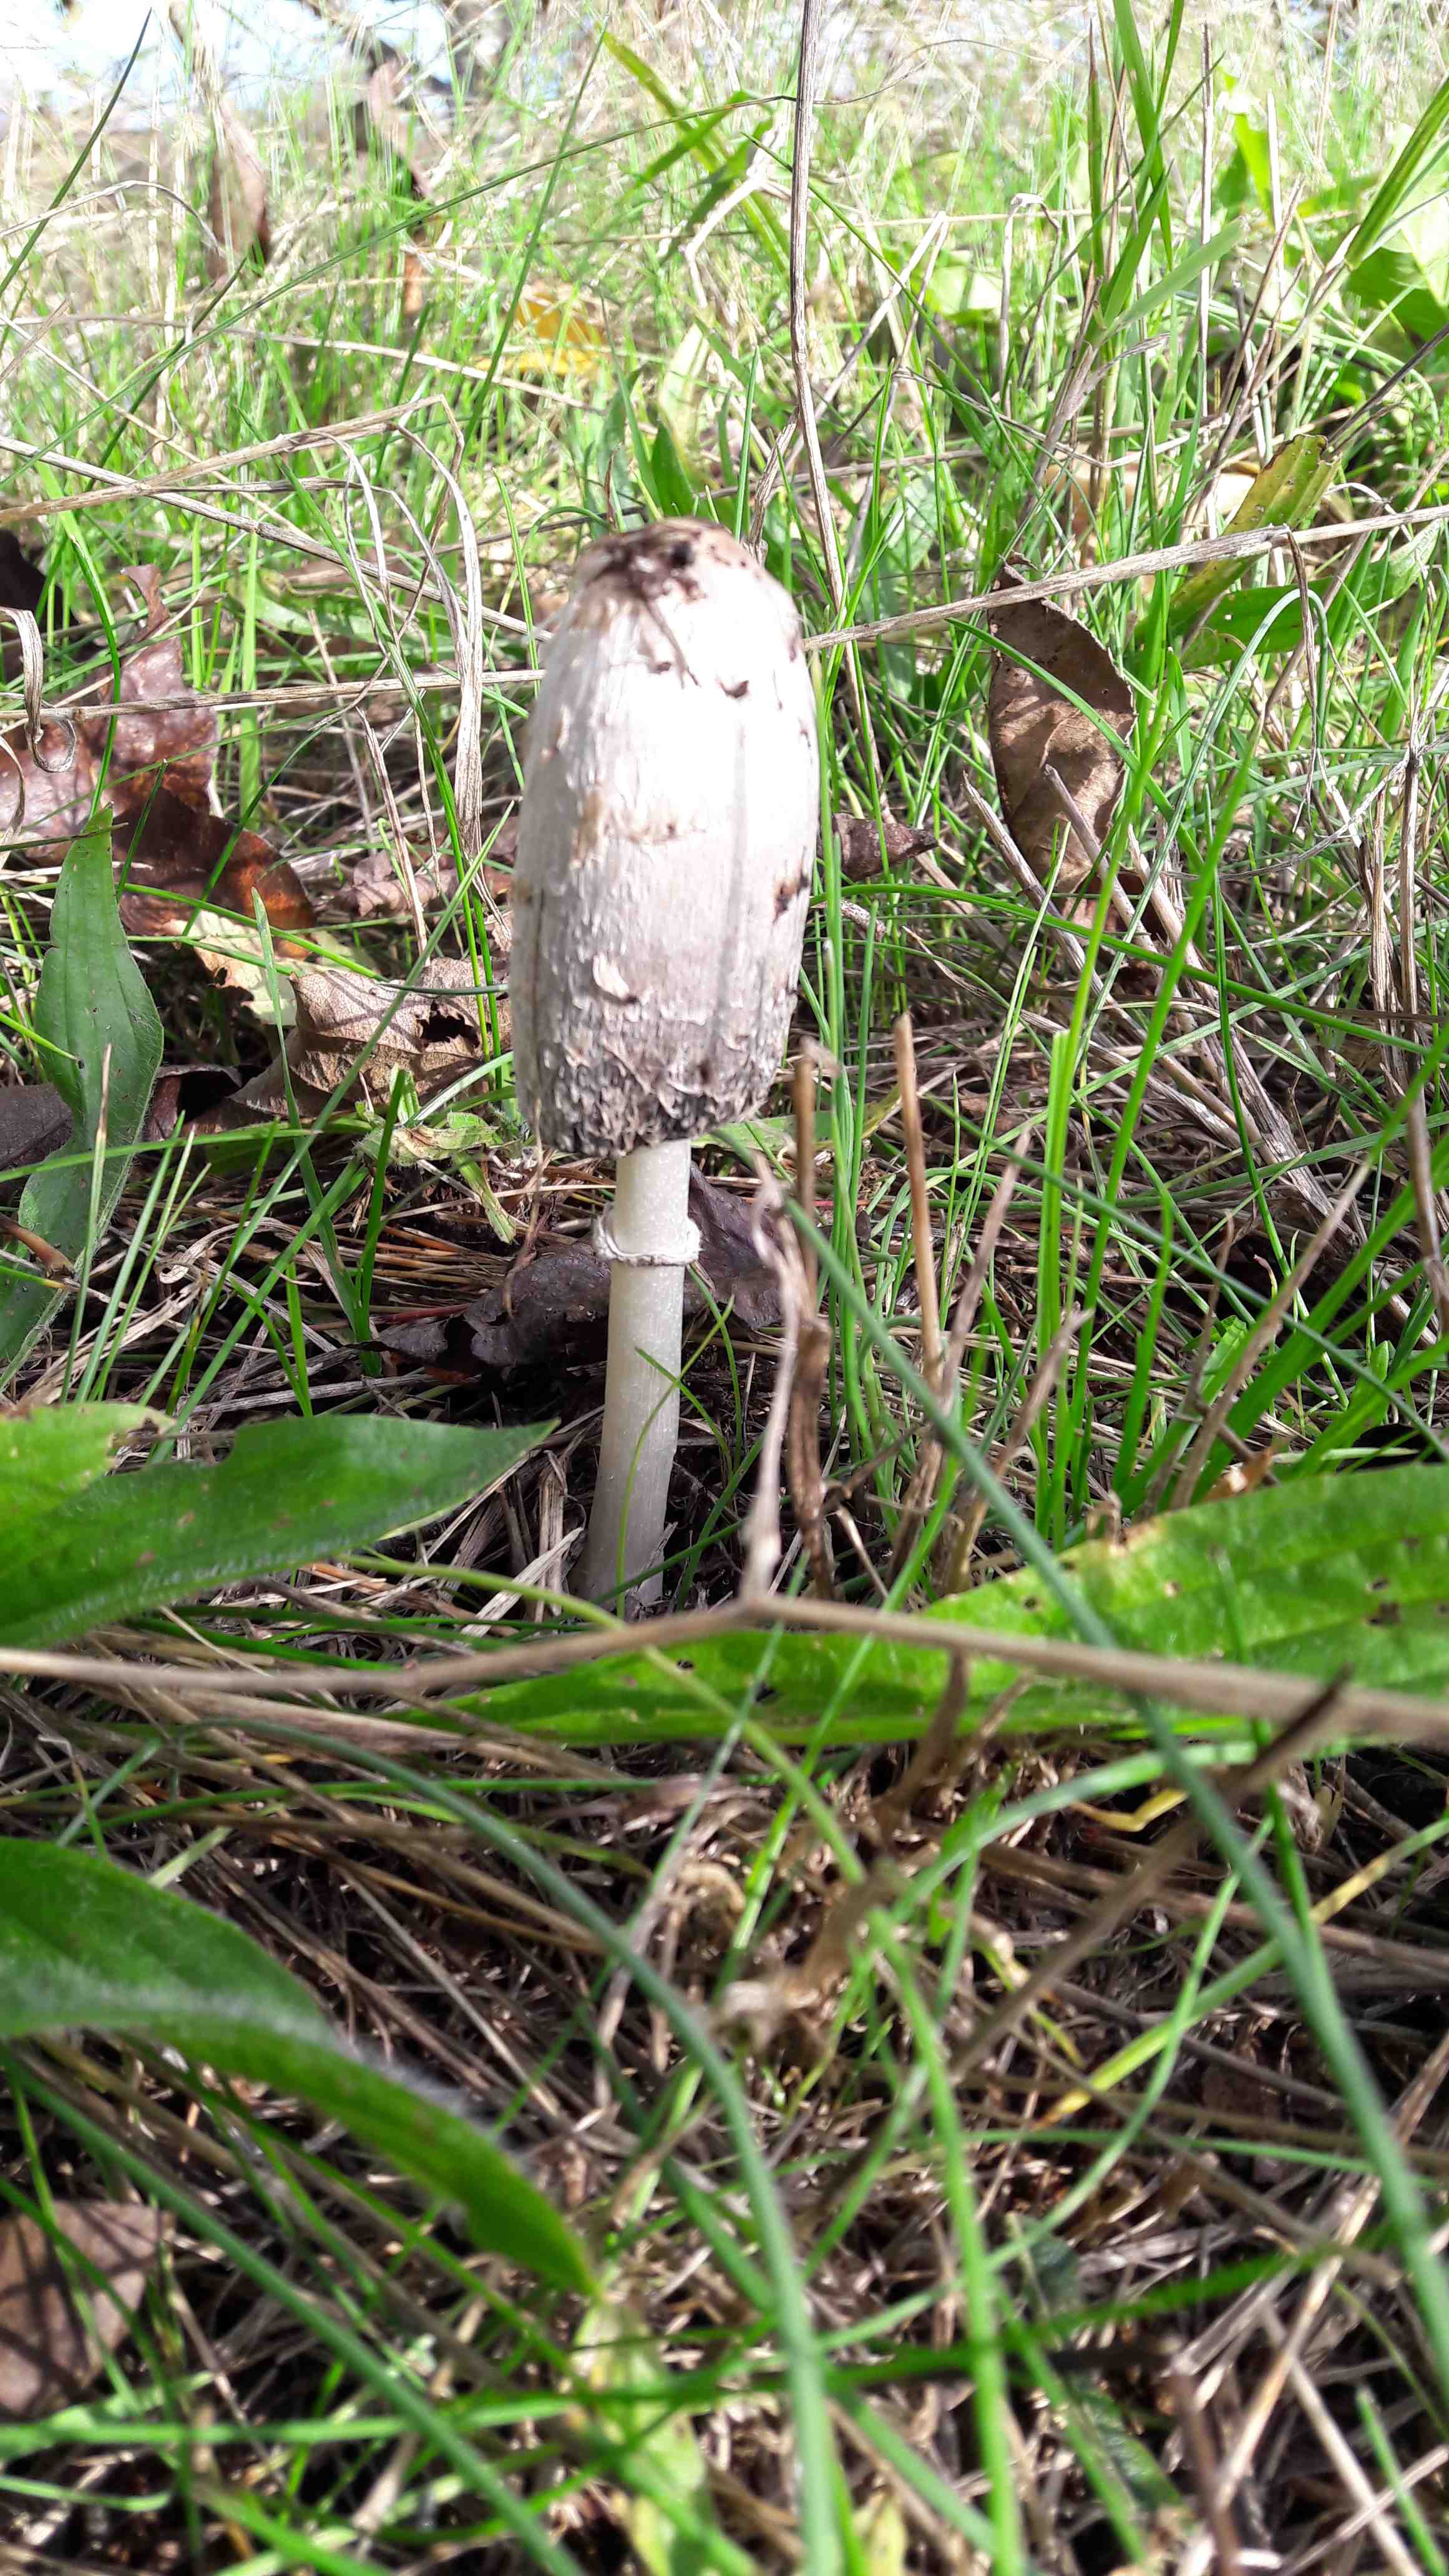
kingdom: Fungi
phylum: Basidiomycota
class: Agaricomycetes
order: Agaricales
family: Agaricaceae
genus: Coprinus
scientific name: Coprinus comatus
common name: stor parykhat
